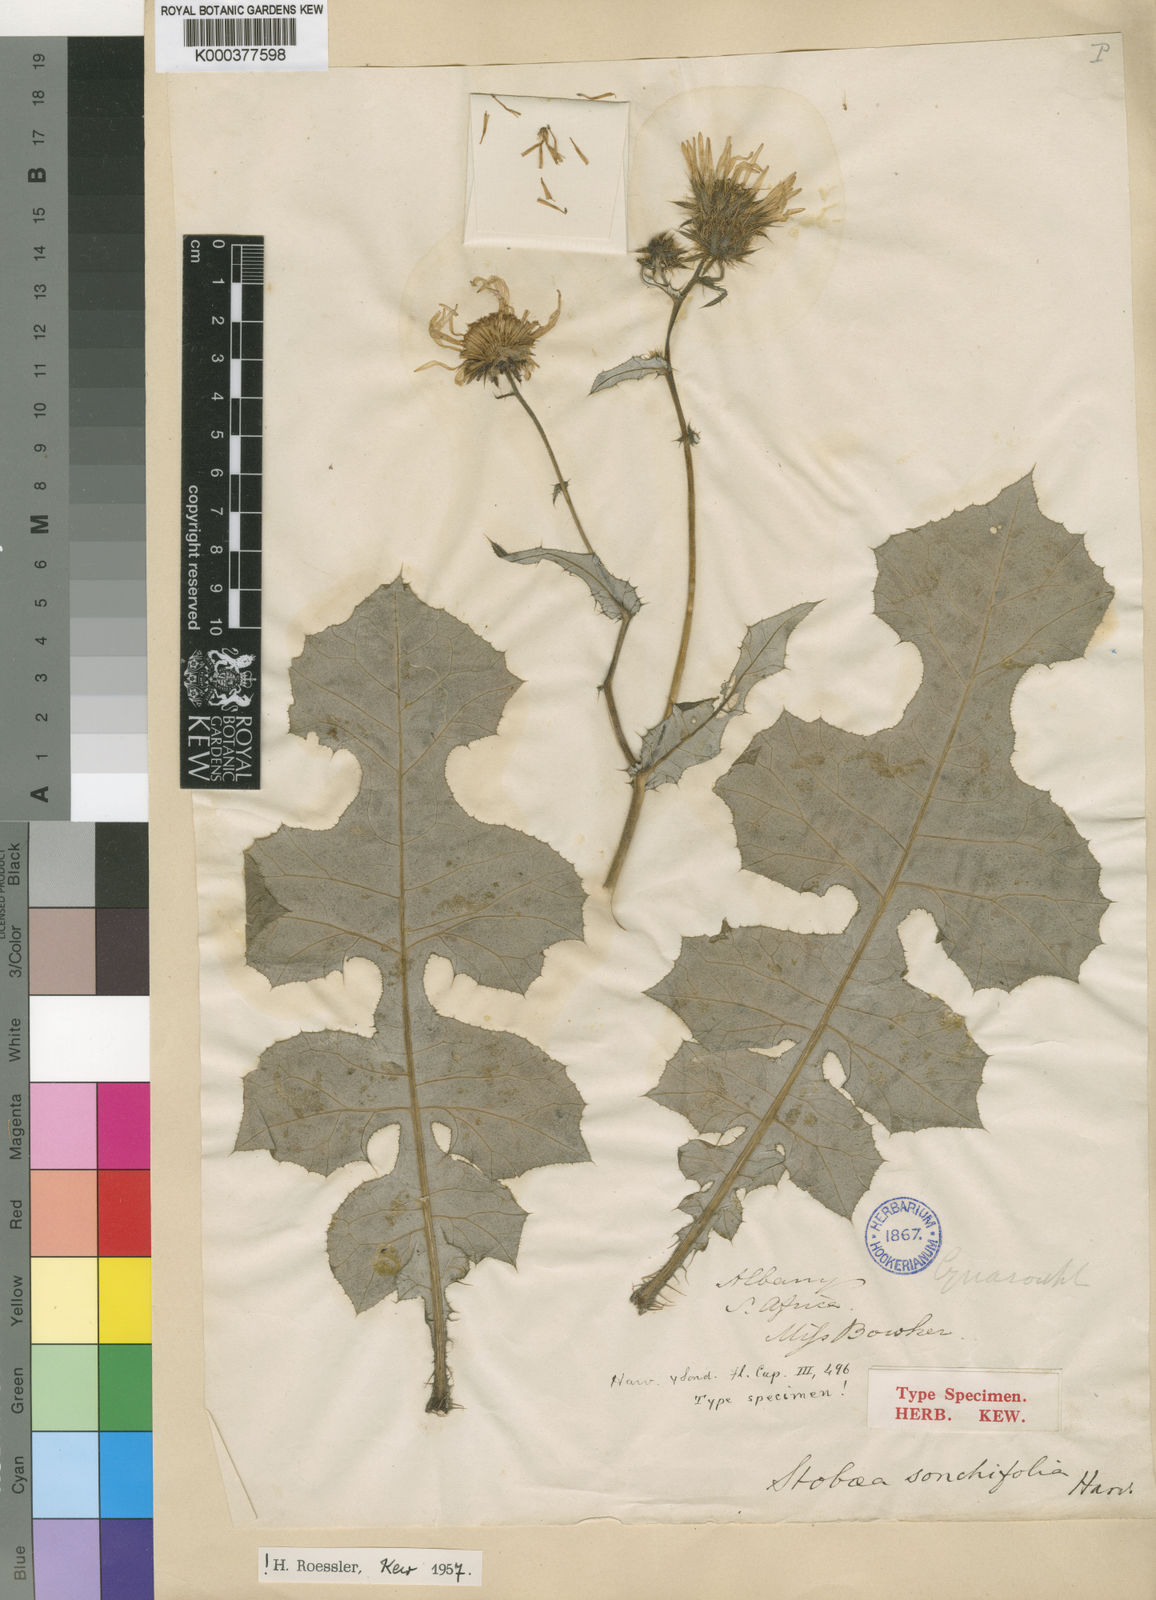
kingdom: Plantae
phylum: Tracheophyta
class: Magnoliopsida
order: Asterales
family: Asteraceae
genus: Berkheya
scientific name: Berkheya erysithales
